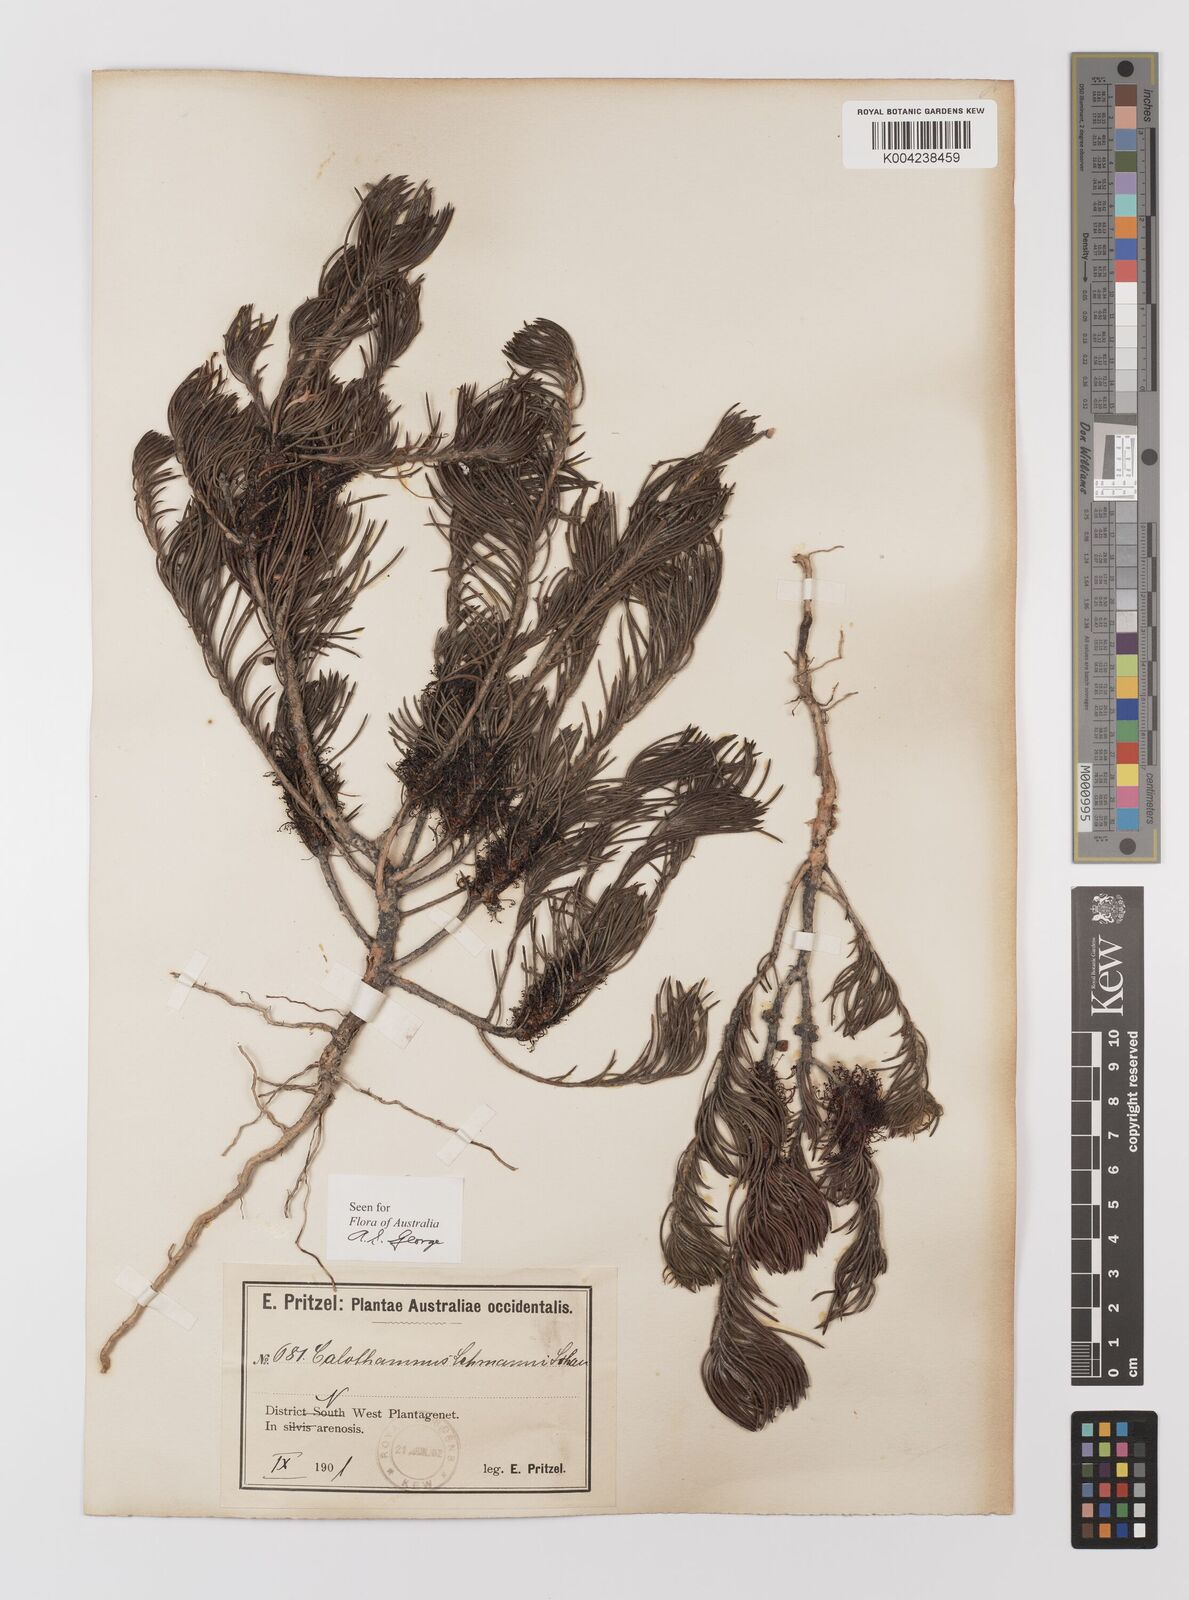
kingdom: Plantae
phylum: Tracheophyta
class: Magnoliopsida
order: Myrtales
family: Myrtaceae
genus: Melaleuca
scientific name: Melaleuca johannis-lehmannii
